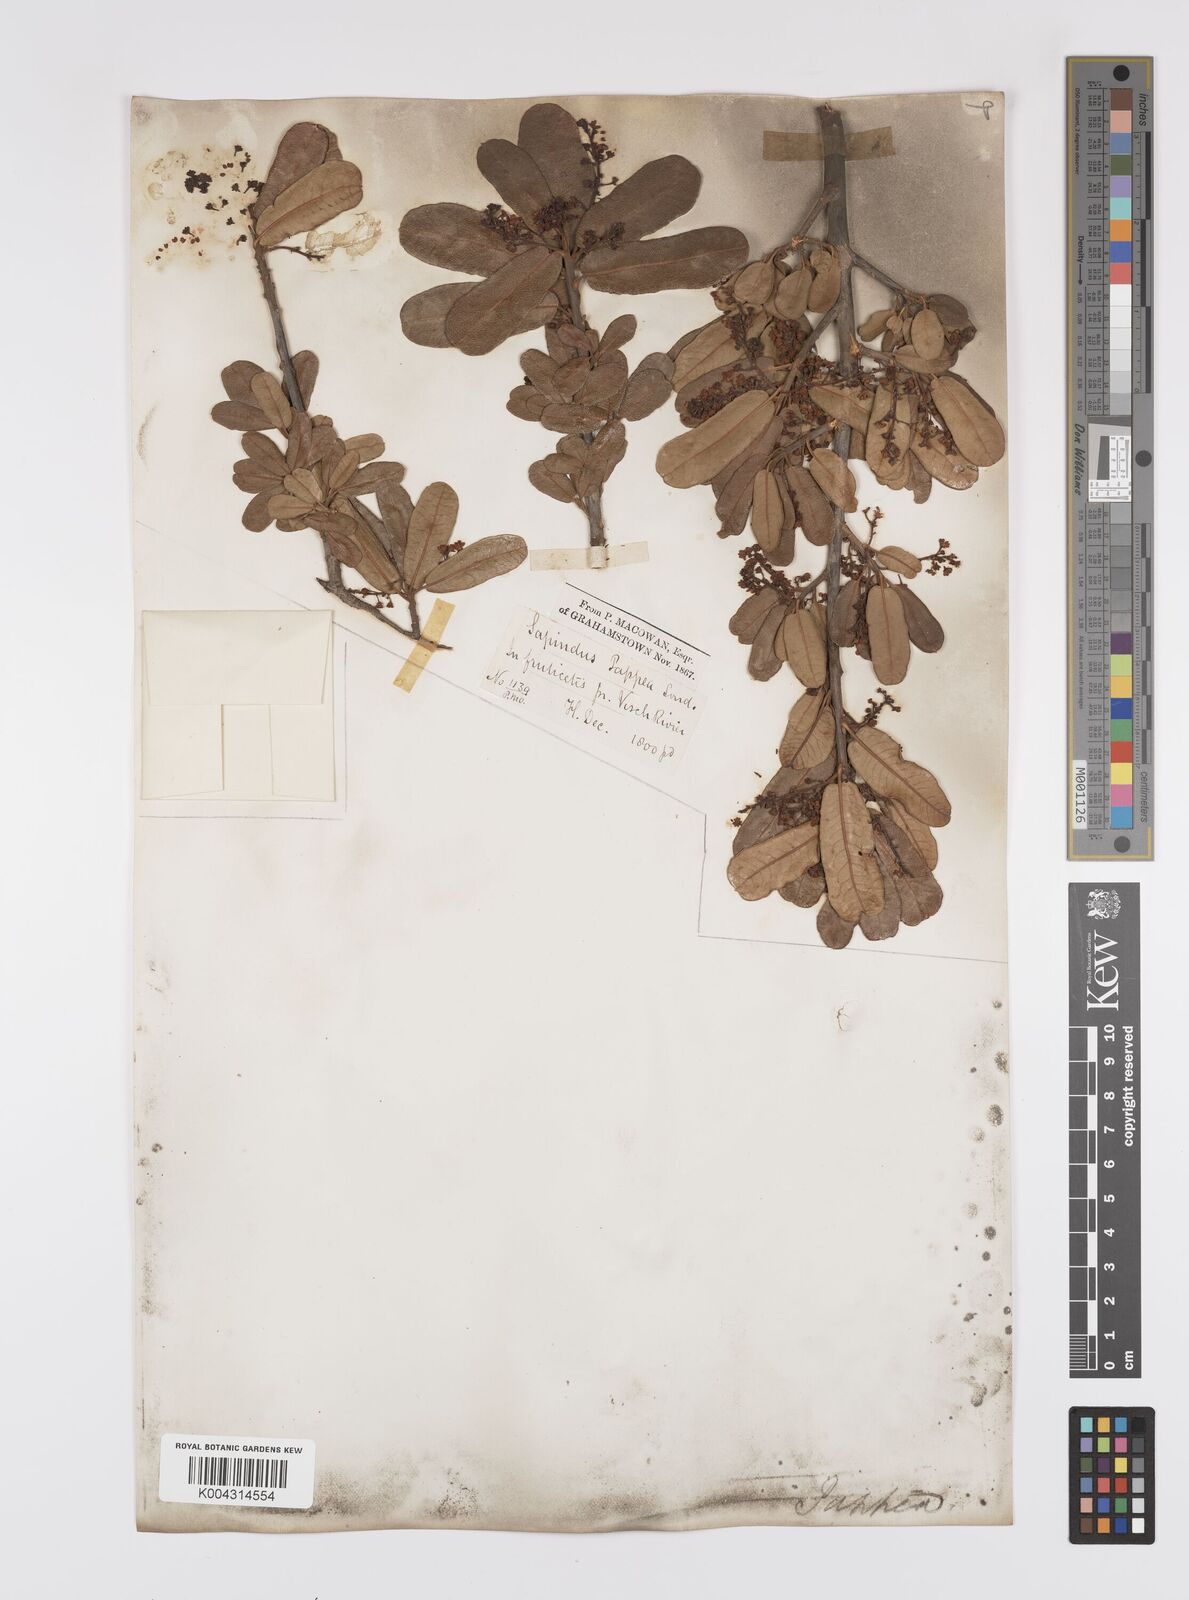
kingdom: Plantae
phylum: Tracheophyta
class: Magnoliopsida
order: Sapindales
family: Sapindaceae
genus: Pappea
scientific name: Pappea capensis
